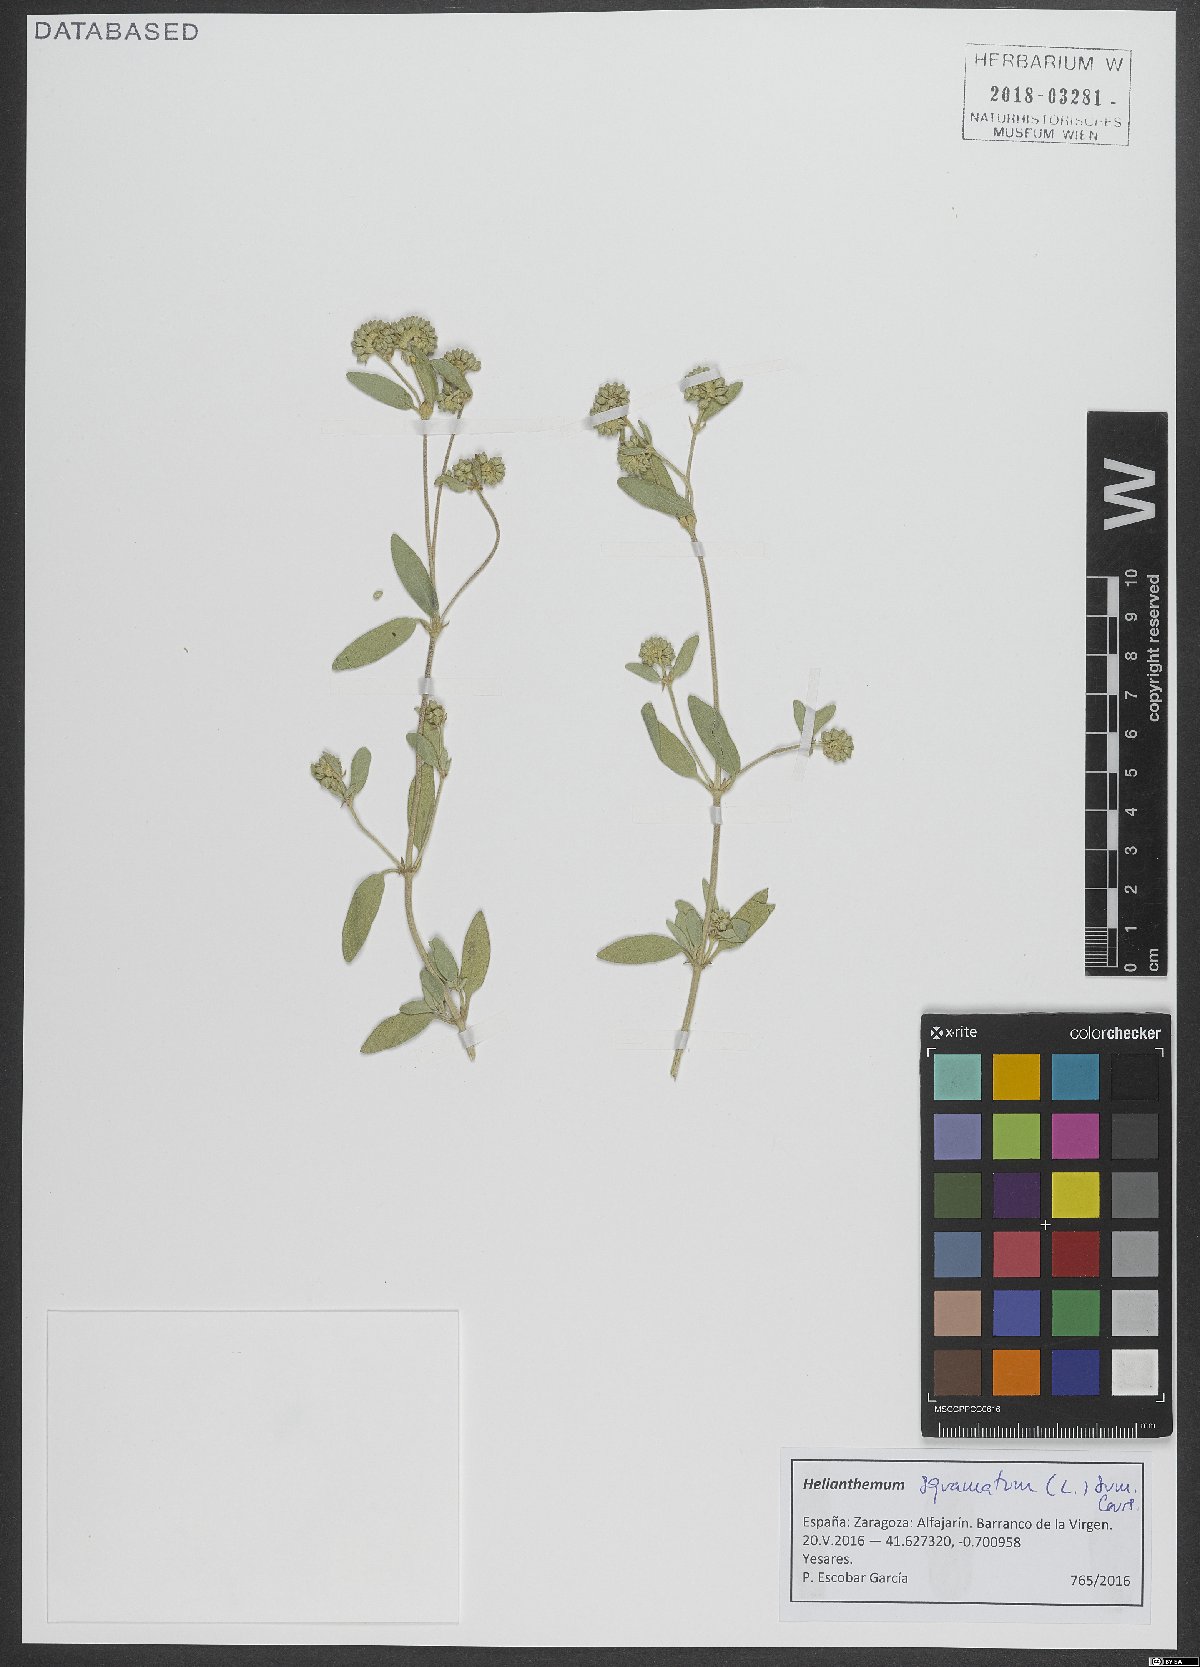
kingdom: Plantae
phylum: Tracheophyta
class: Magnoliopsida
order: Malvales
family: Cistaceae
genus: Helianthemum
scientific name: Helianthemum squamatum
